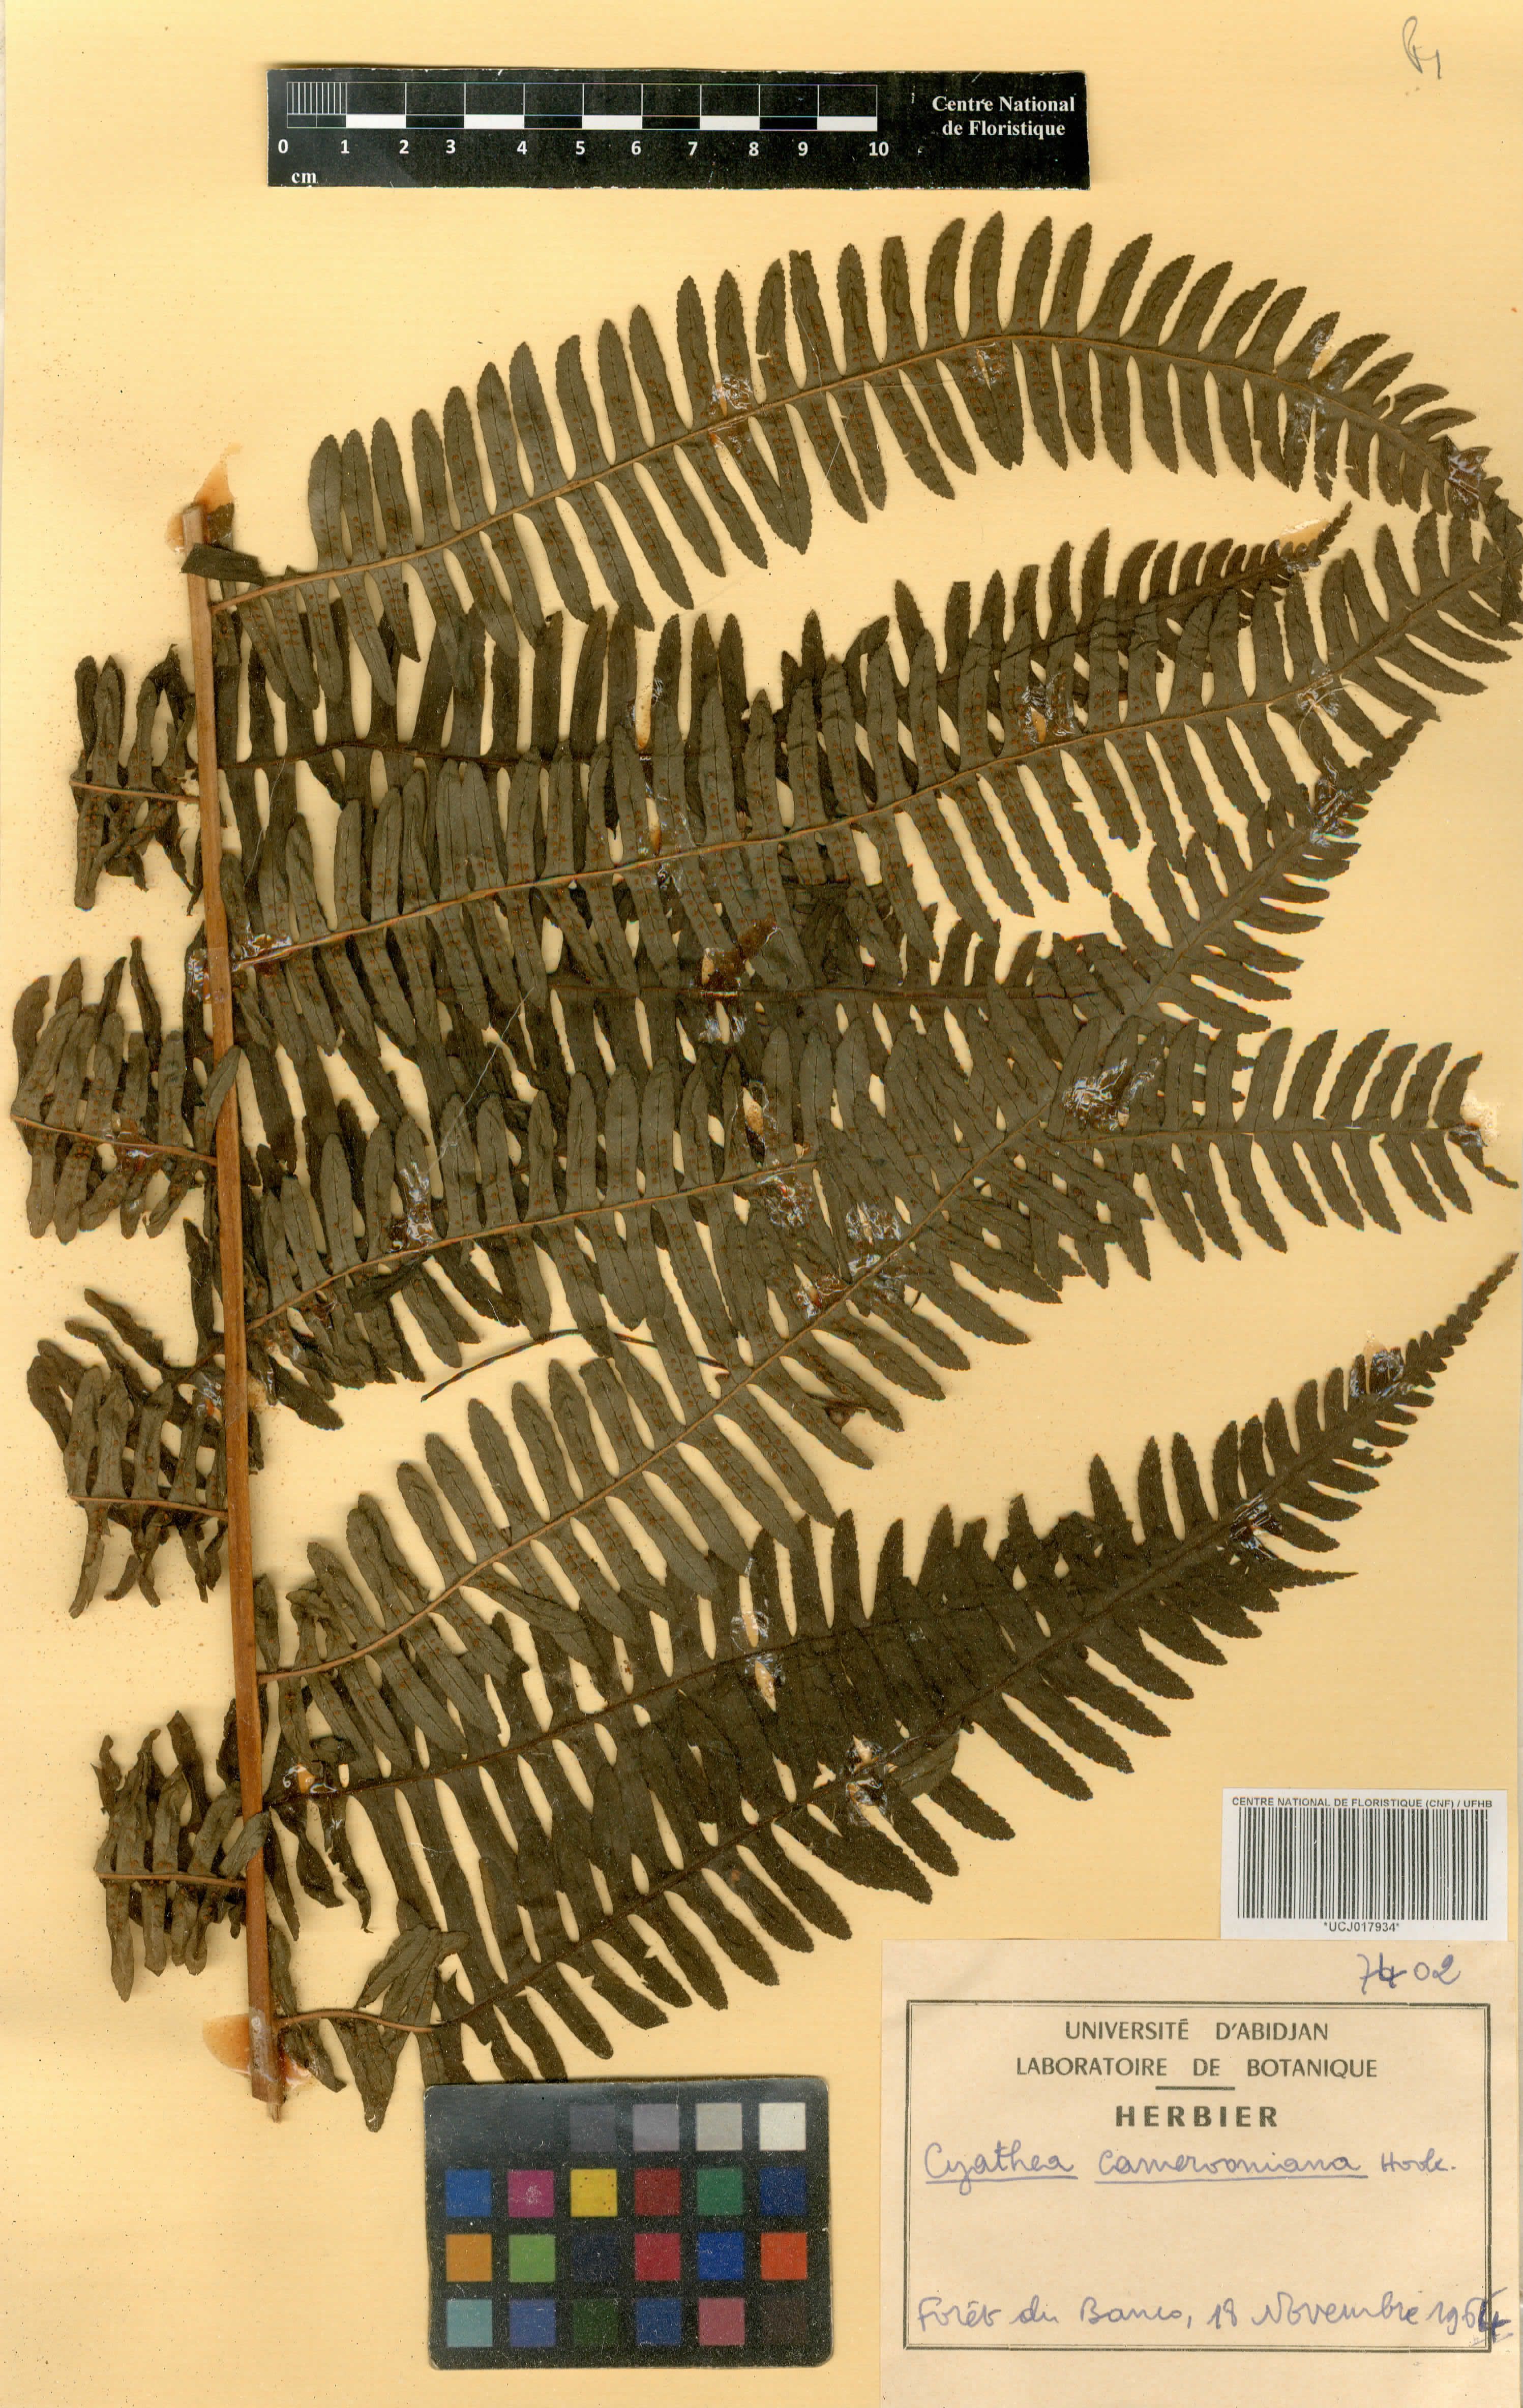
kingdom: Plantae
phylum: Tracheophyta
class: Polypodiopsida
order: Cyatheales
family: Cyatheaceae
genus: Alsophila
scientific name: Alsophila camerooniana
